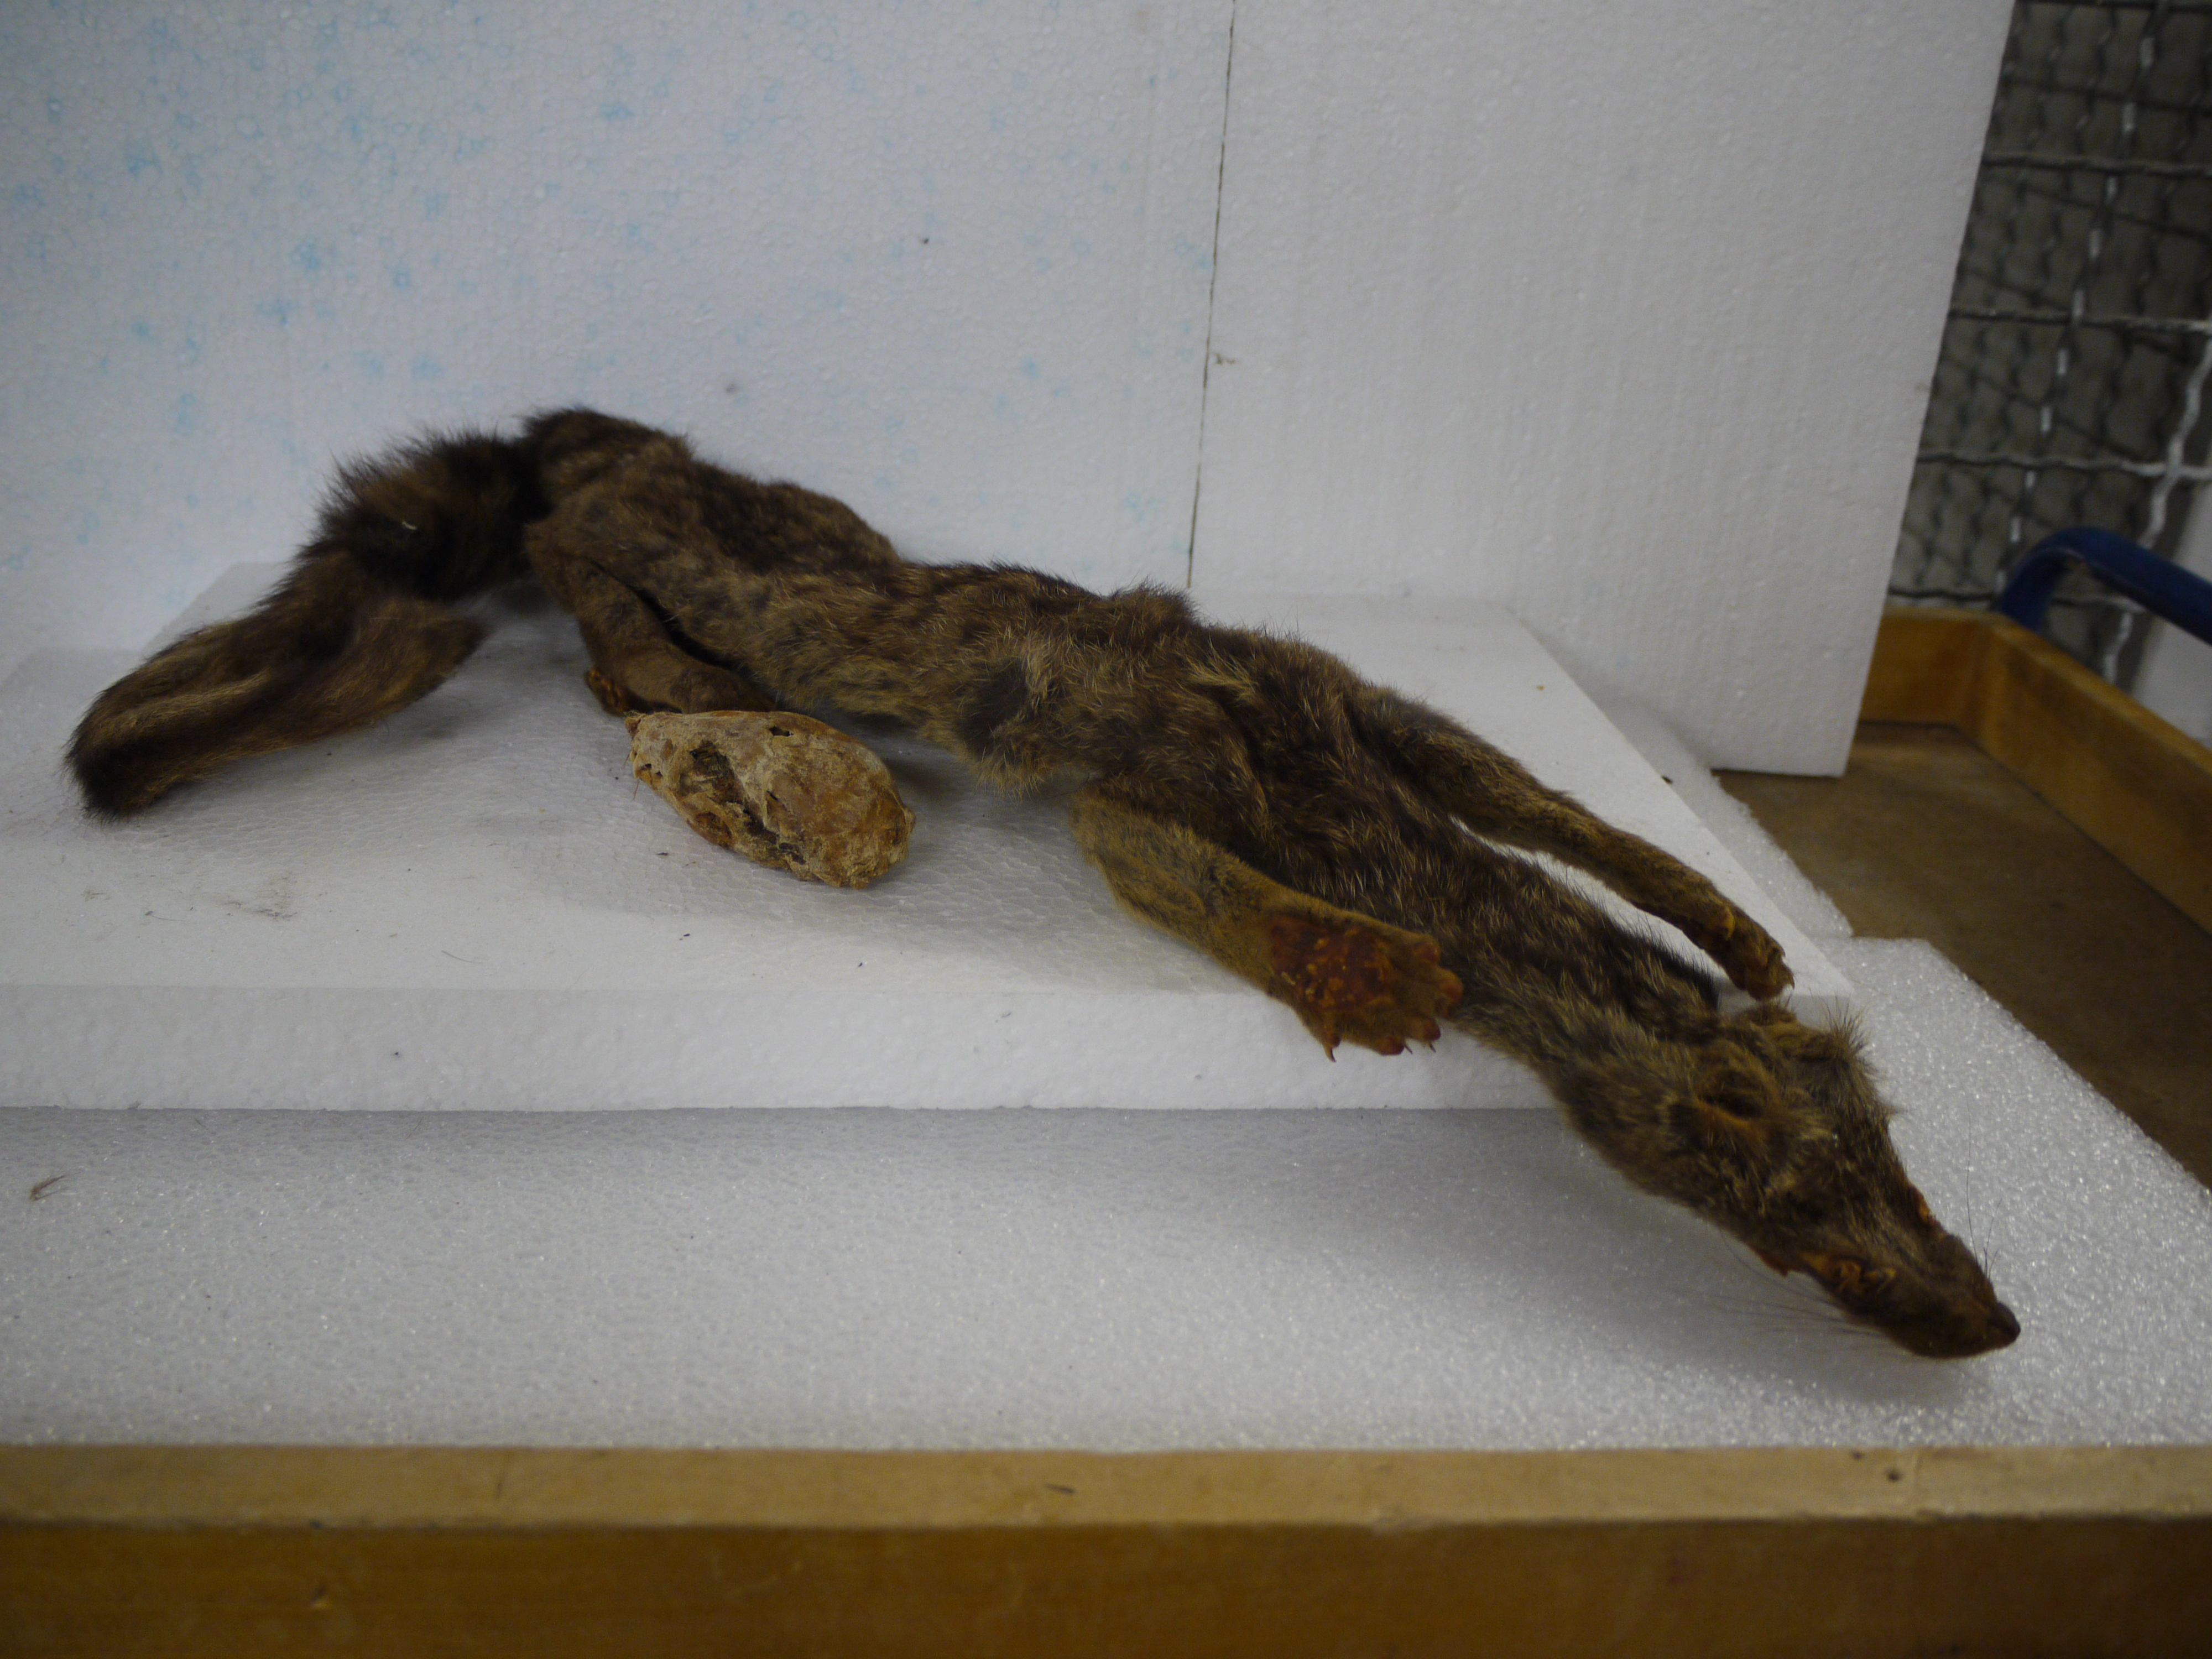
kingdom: Animalia
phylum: Chordata
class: Mammalia
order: Carnivora
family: Viverridae
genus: Genetta
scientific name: Genetta servalina
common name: Servaline genet
